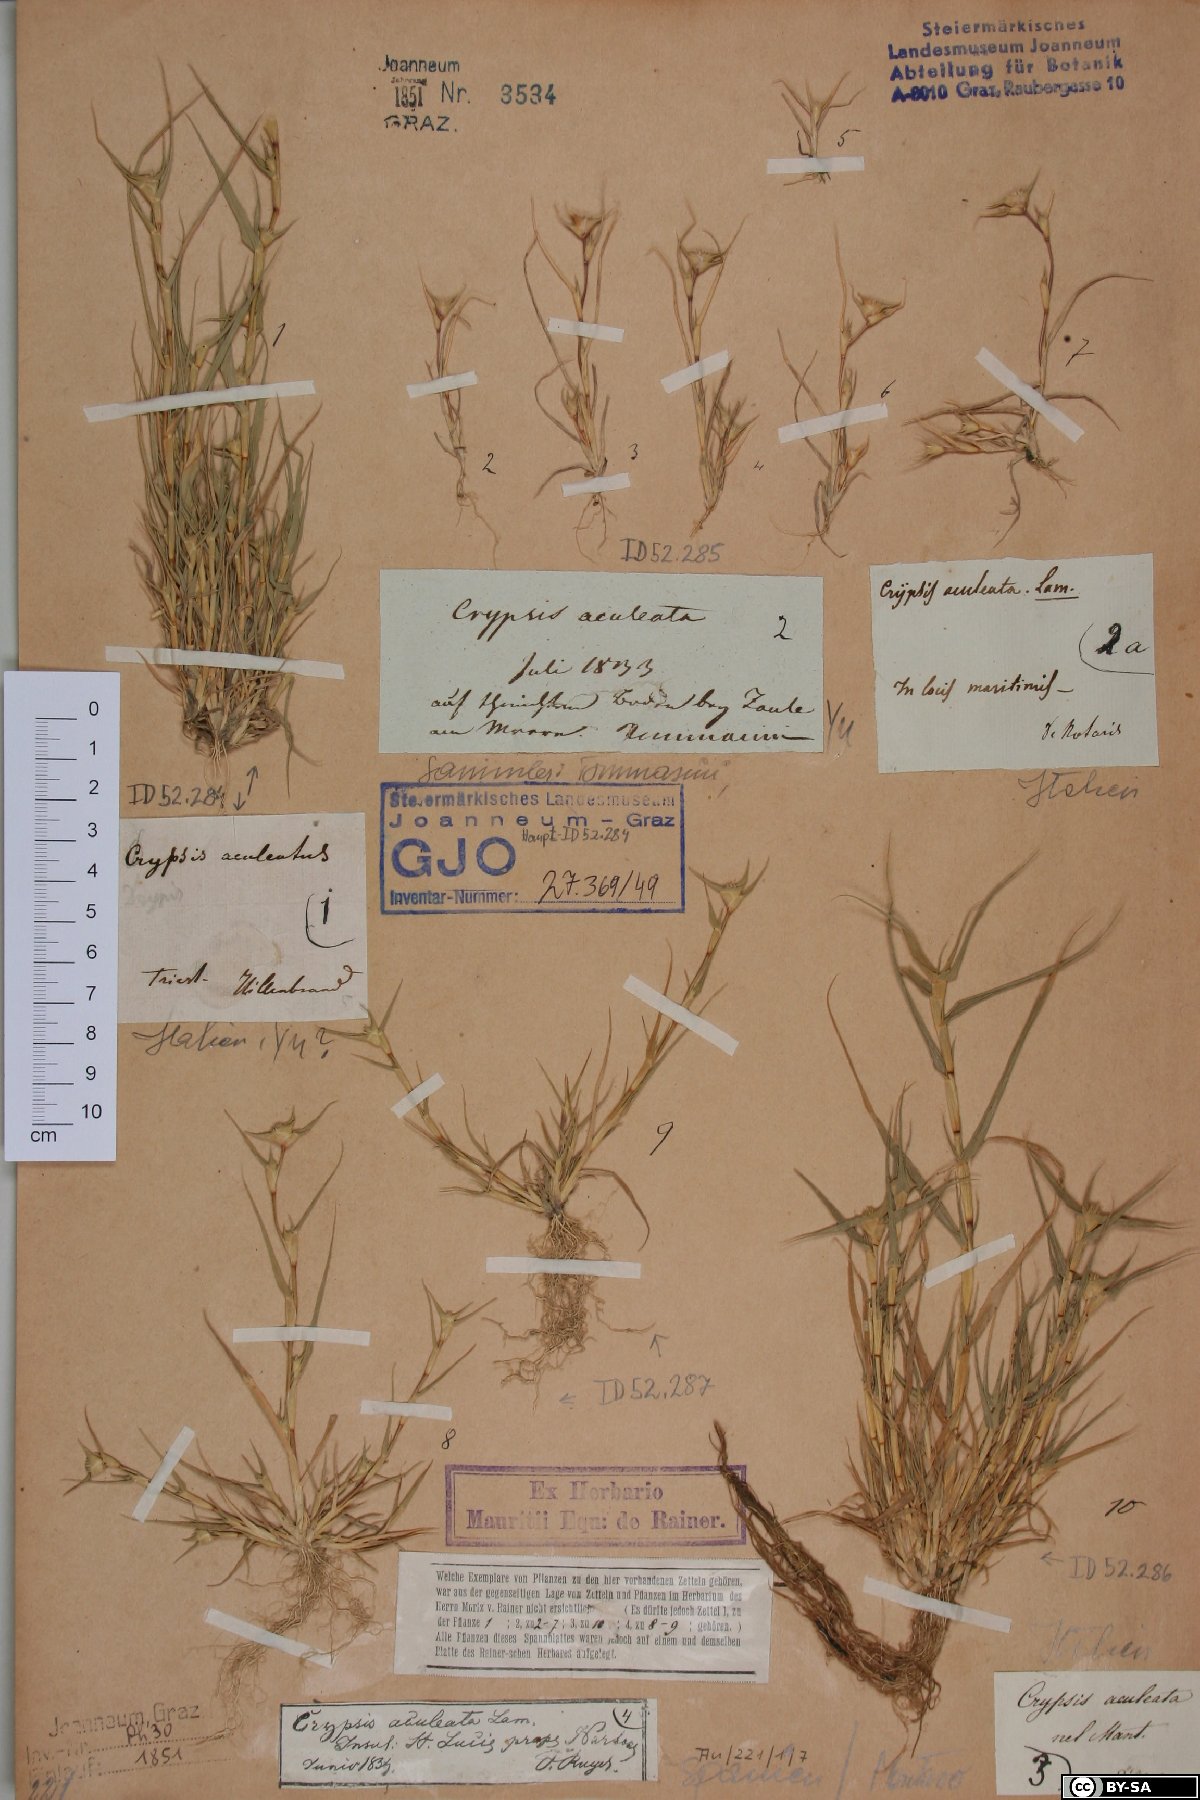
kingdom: Plantae
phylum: Tracheophyta
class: Liliopsida
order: Poales
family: Poaceae
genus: Sporobolus
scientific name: Sporobolus aculeatus
